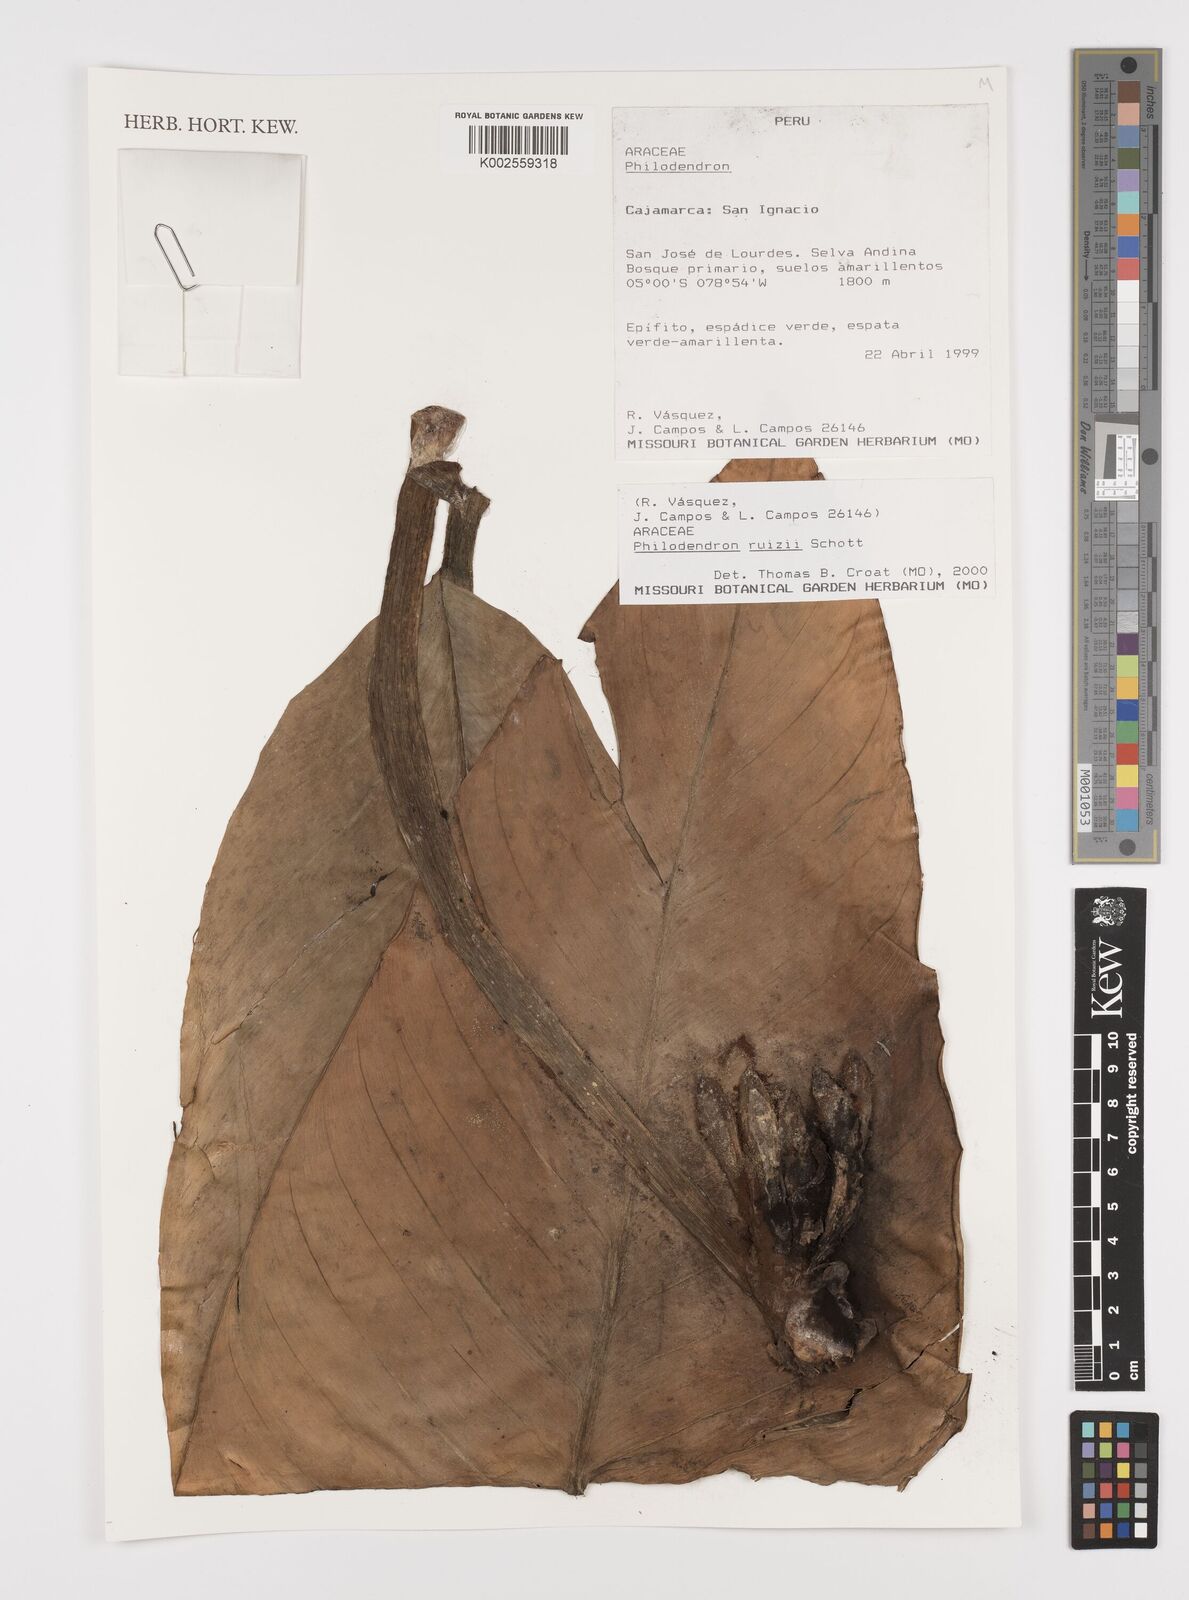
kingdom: Plantae
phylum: Tracheophyta
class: Liliopsida
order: Alismatales
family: Araceae
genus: Philodendron
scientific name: Philodendron ruizii
